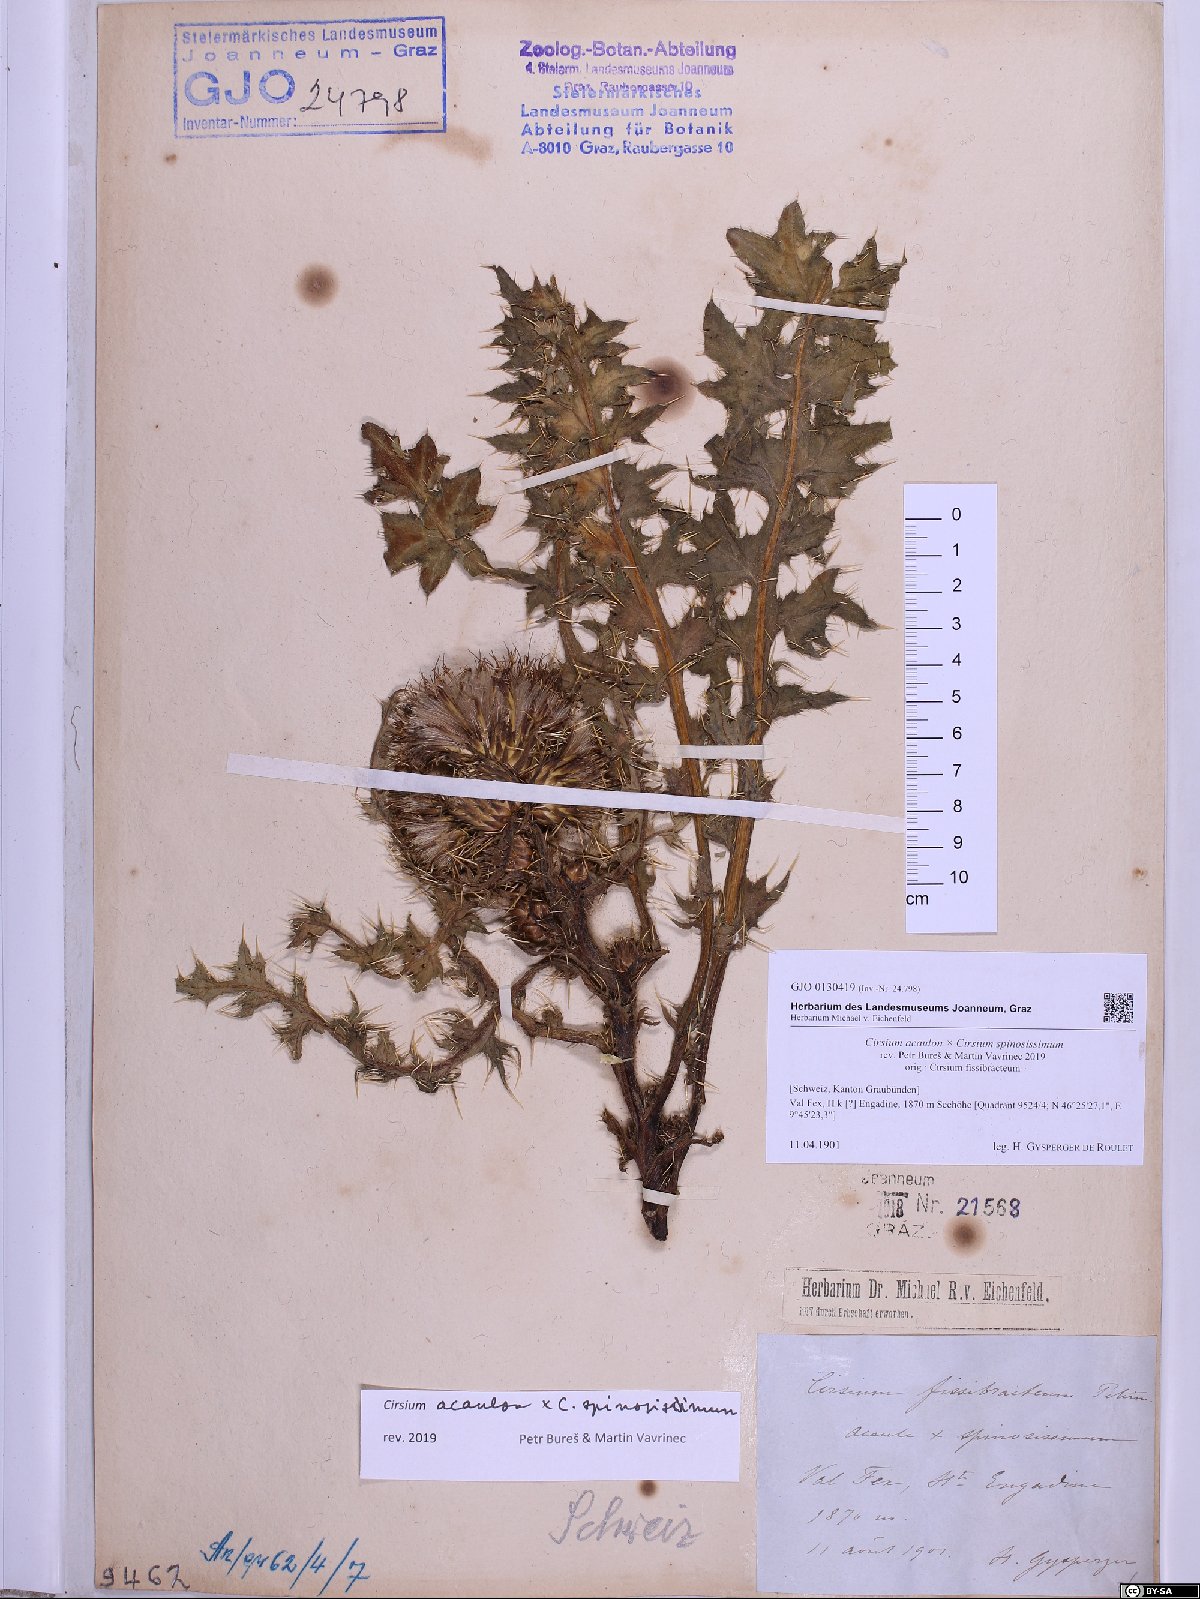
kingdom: Plantae
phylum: Tracheophyta
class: Magnoliopsida
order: Asterales
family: Asteraceae
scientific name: Asteraceae
